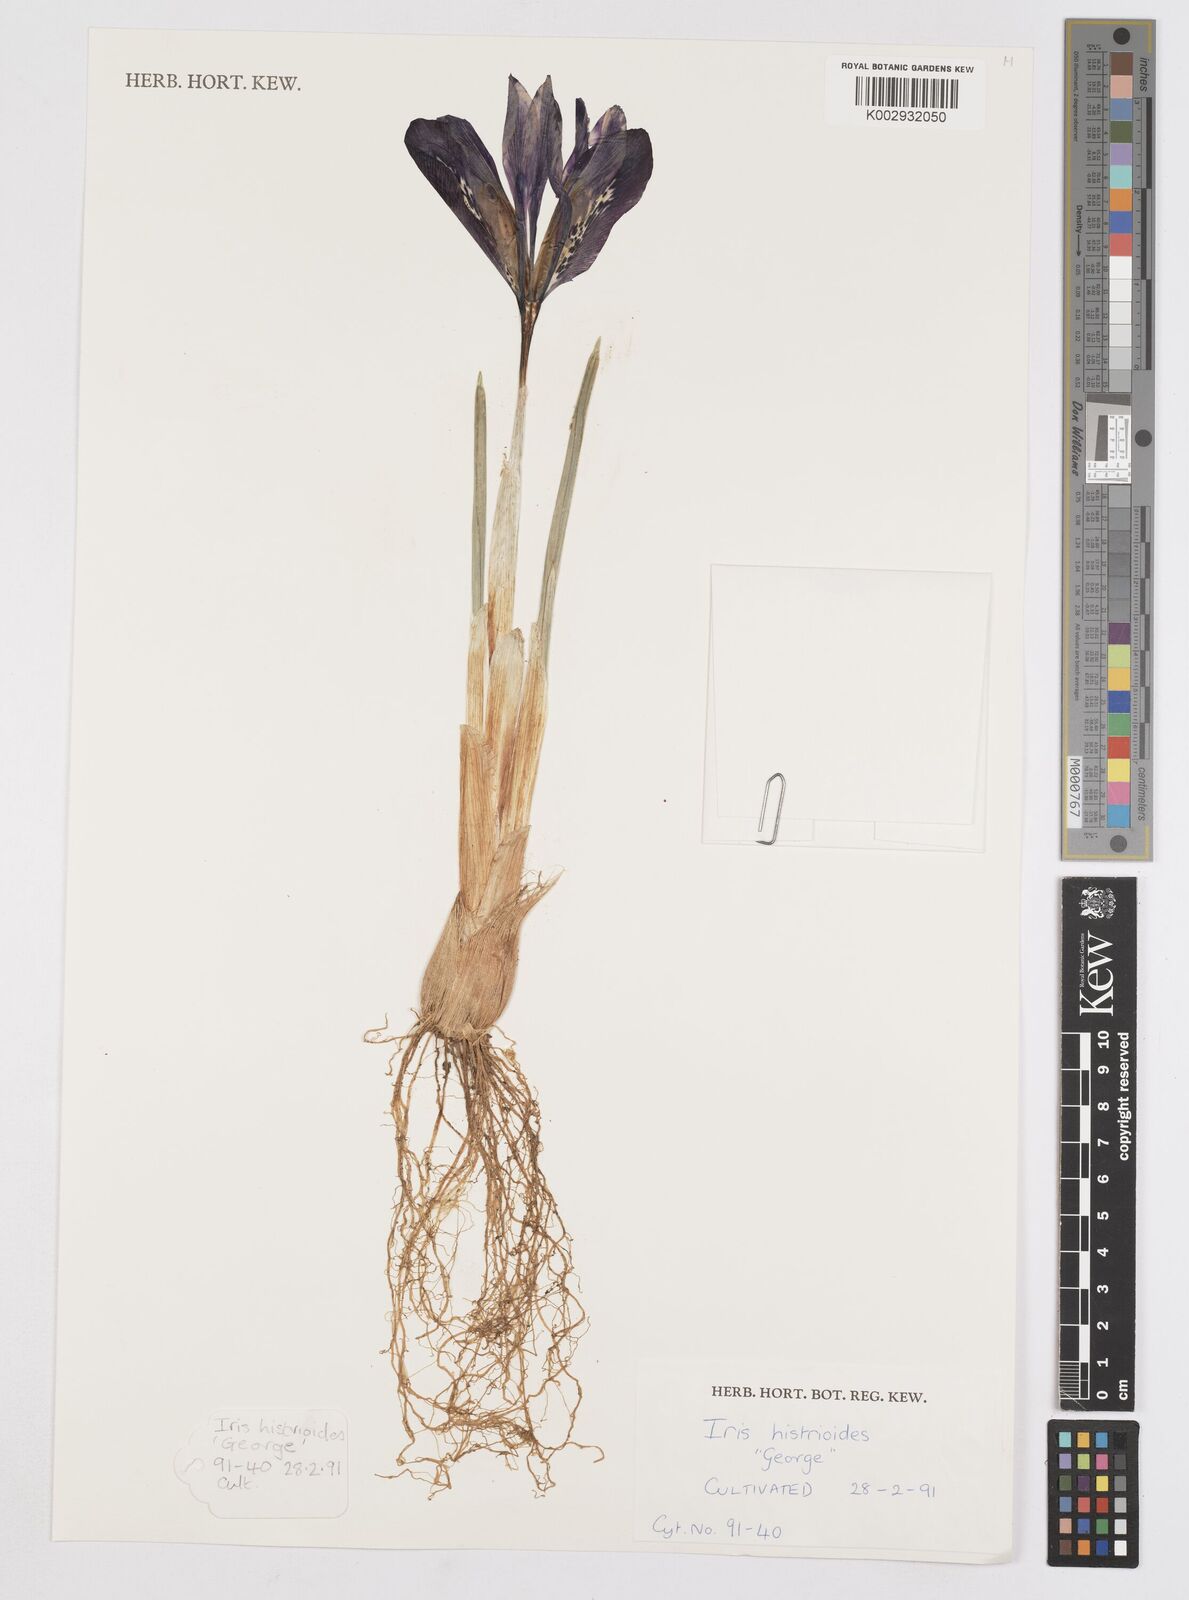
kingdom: Plantae
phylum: Tracheophyta
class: Liliopsida
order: Asparagales
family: Iridaceae
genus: Iris
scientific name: Iris
